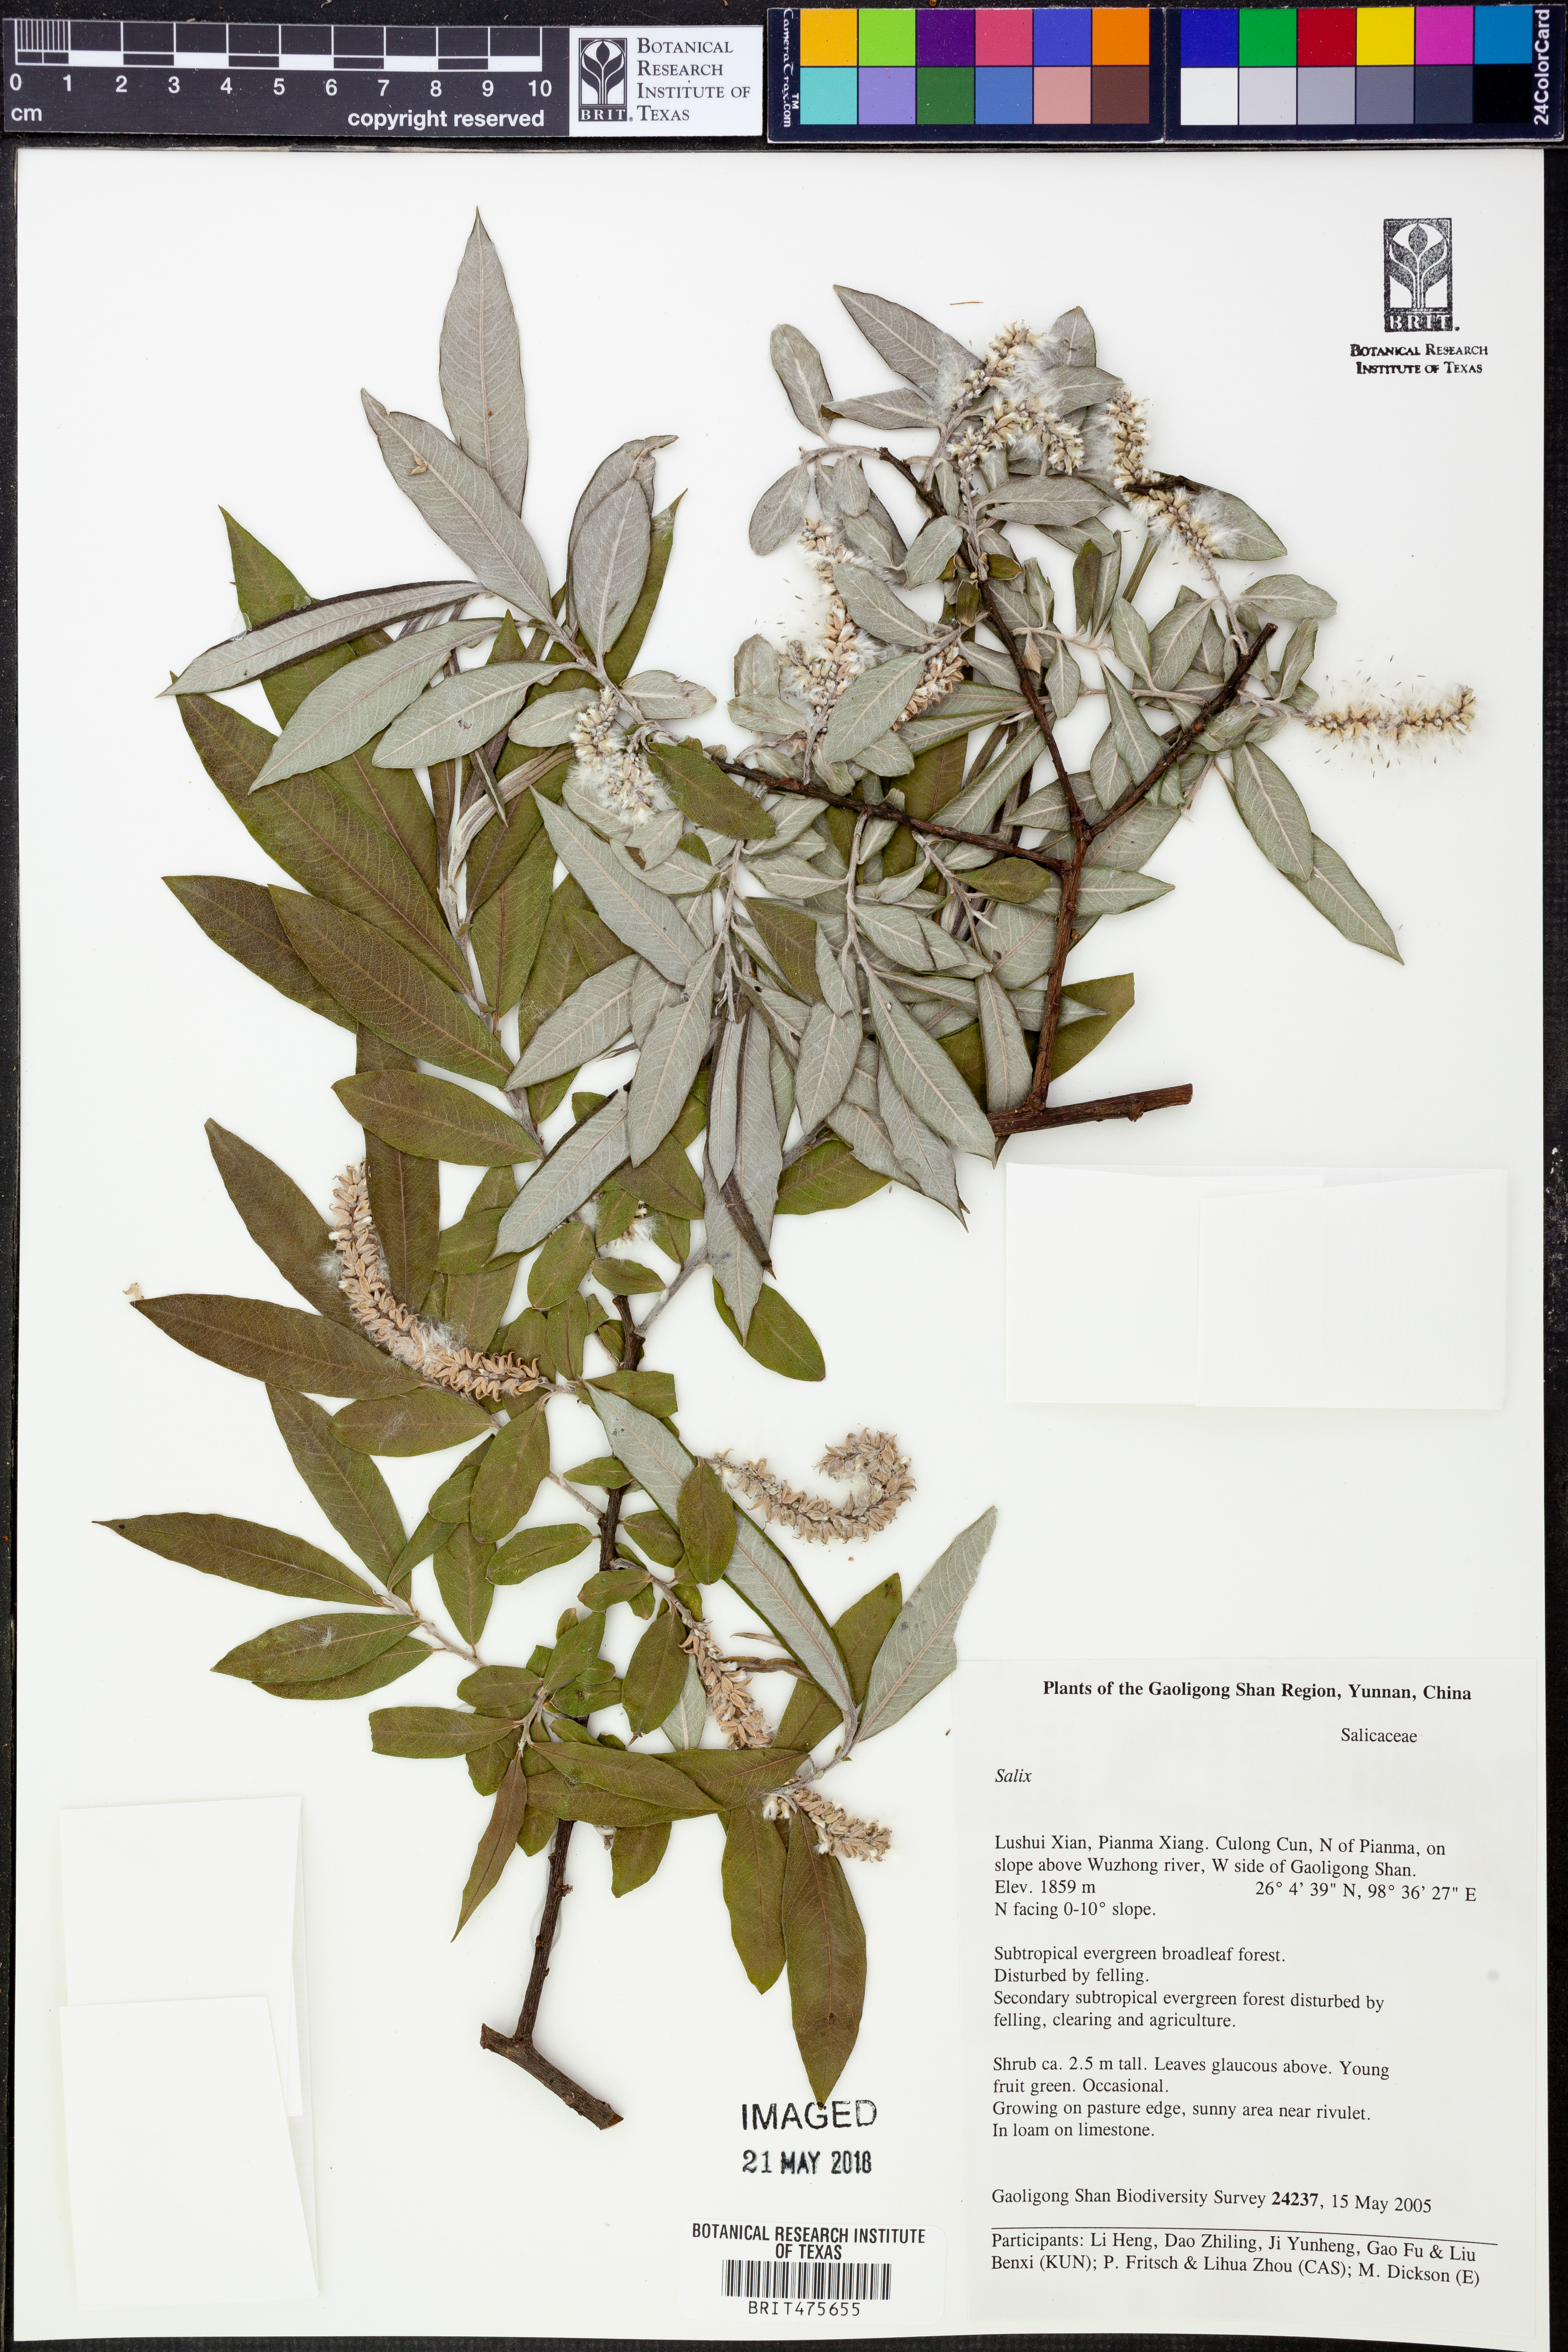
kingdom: Plantae
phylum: Tracheophyta
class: Magnoliopsida
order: Malpighiales
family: Salicaceae
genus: Salix
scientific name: Salix
